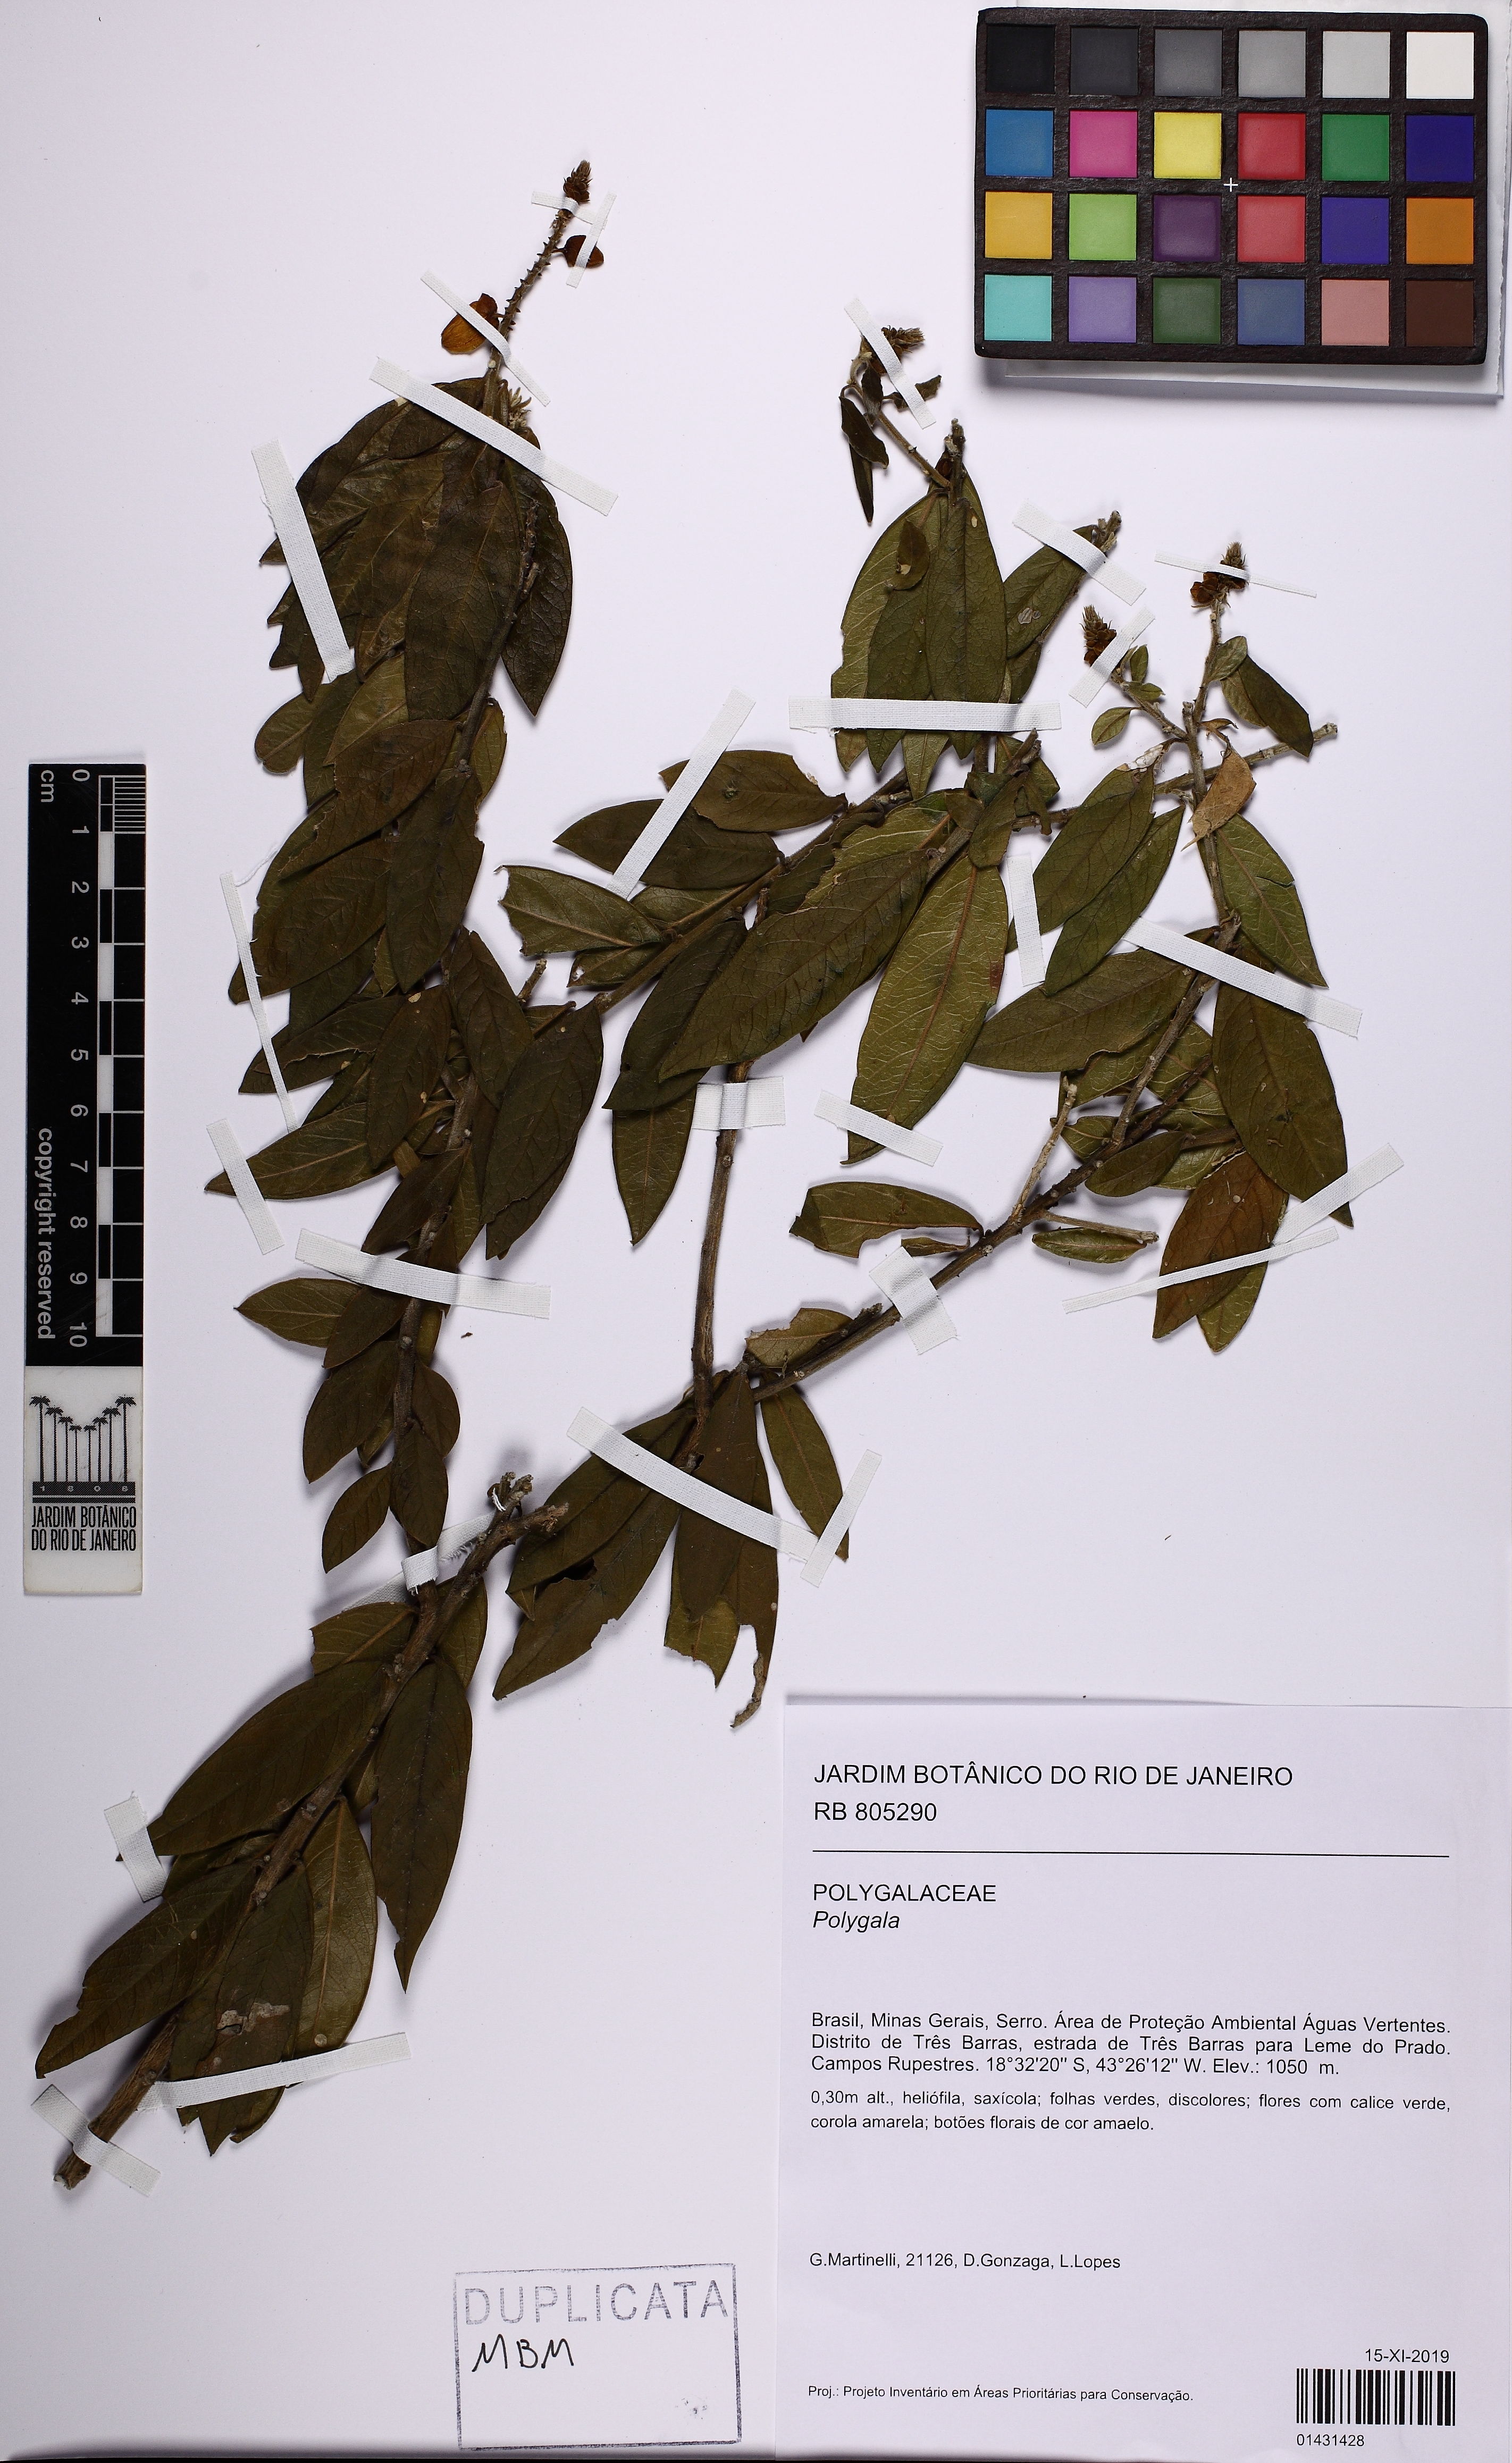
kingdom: Plantae
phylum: Tracheophyta
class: Magnoliopsida
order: Fabales
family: Polygalaceae
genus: Polygala
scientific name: Polygala
